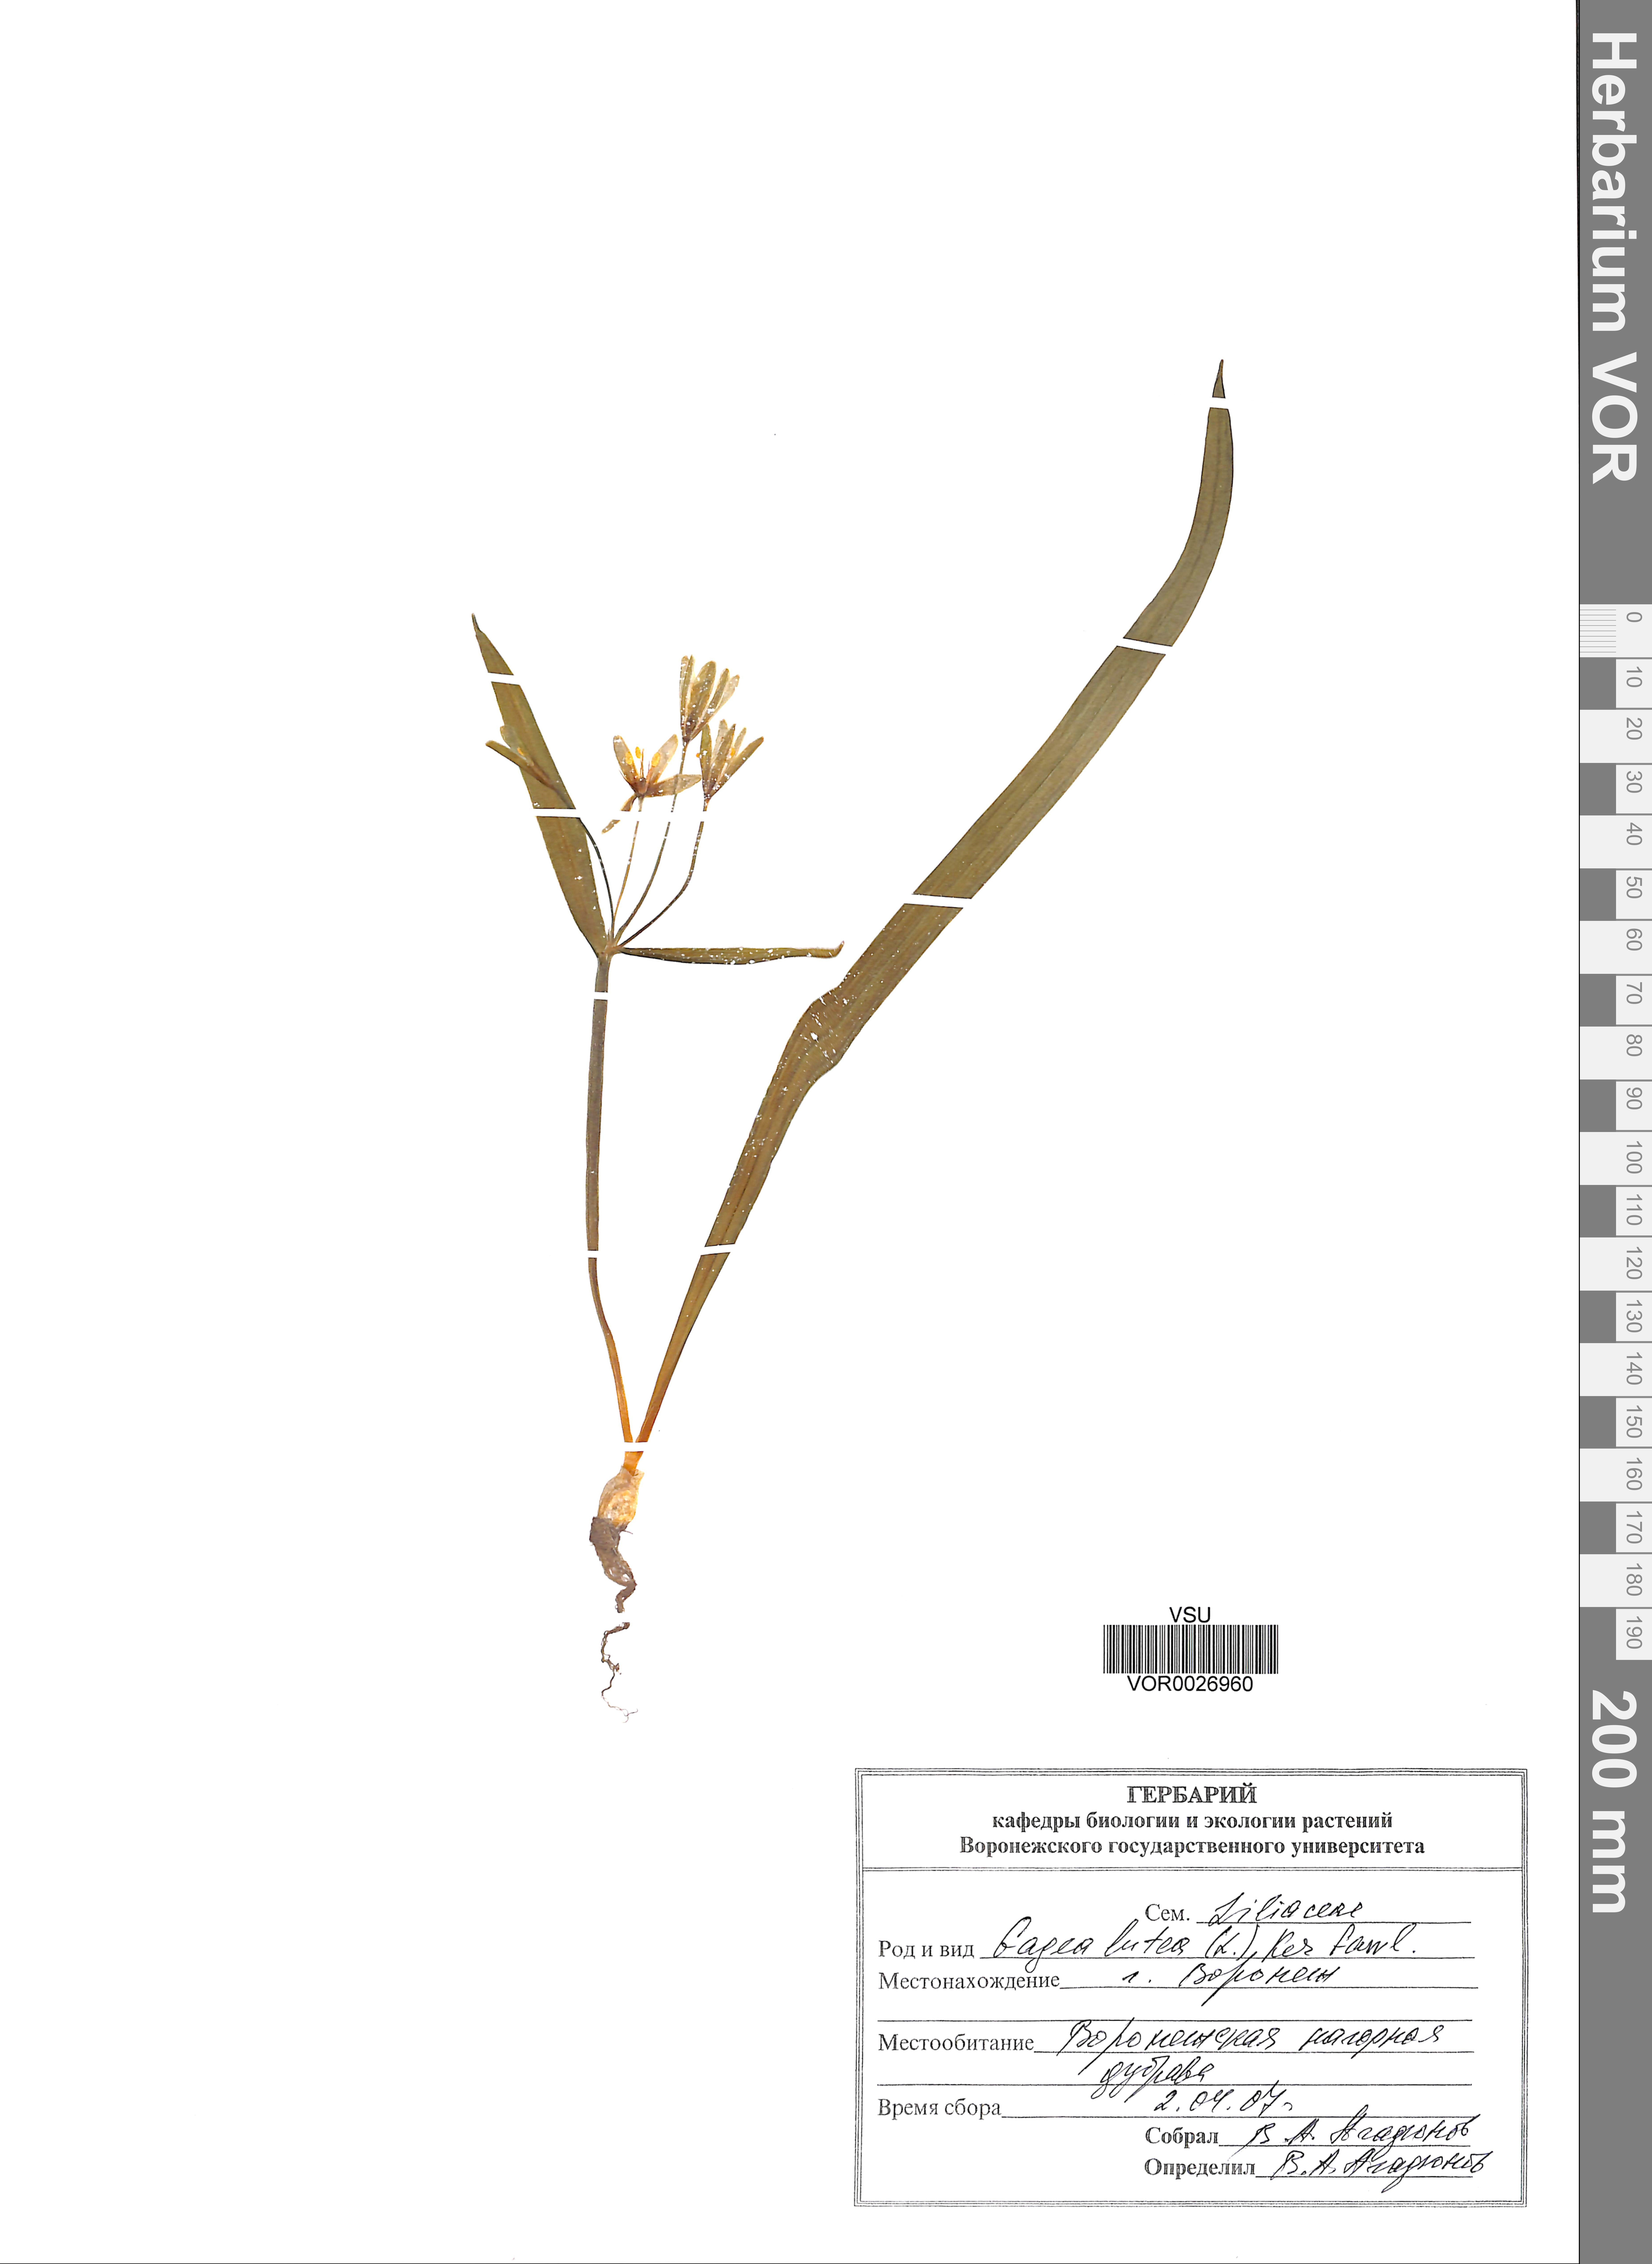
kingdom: Plantae
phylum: Tracheophyta
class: Liliopsida
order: Liliales
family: Liliaceae
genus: Gagea
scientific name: Gagea lutea
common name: Yellow star-of-bethlehem
